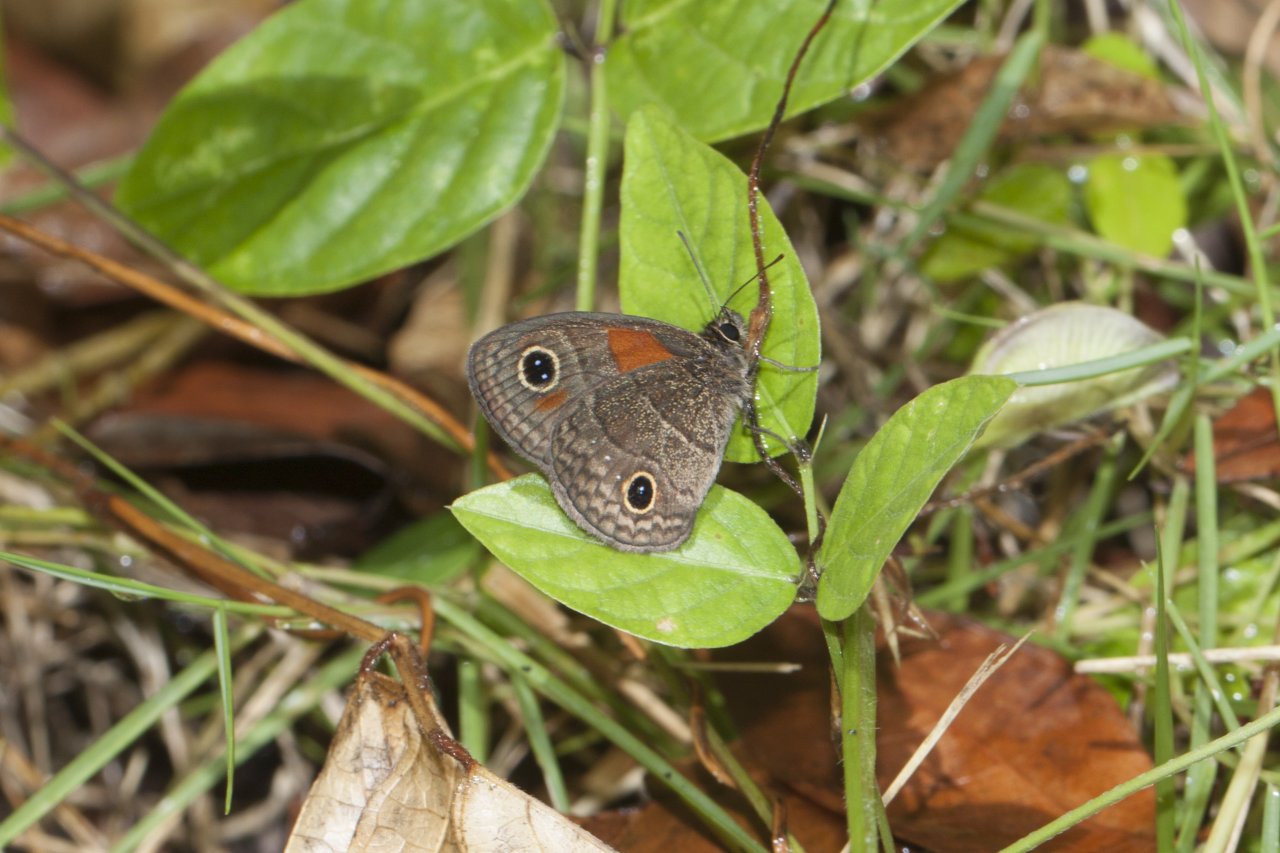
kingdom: Animalia
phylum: Arthropoda
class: Insecta
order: Lepidoptera
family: Nymphalidae
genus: Calisto
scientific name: Calisto hysius
